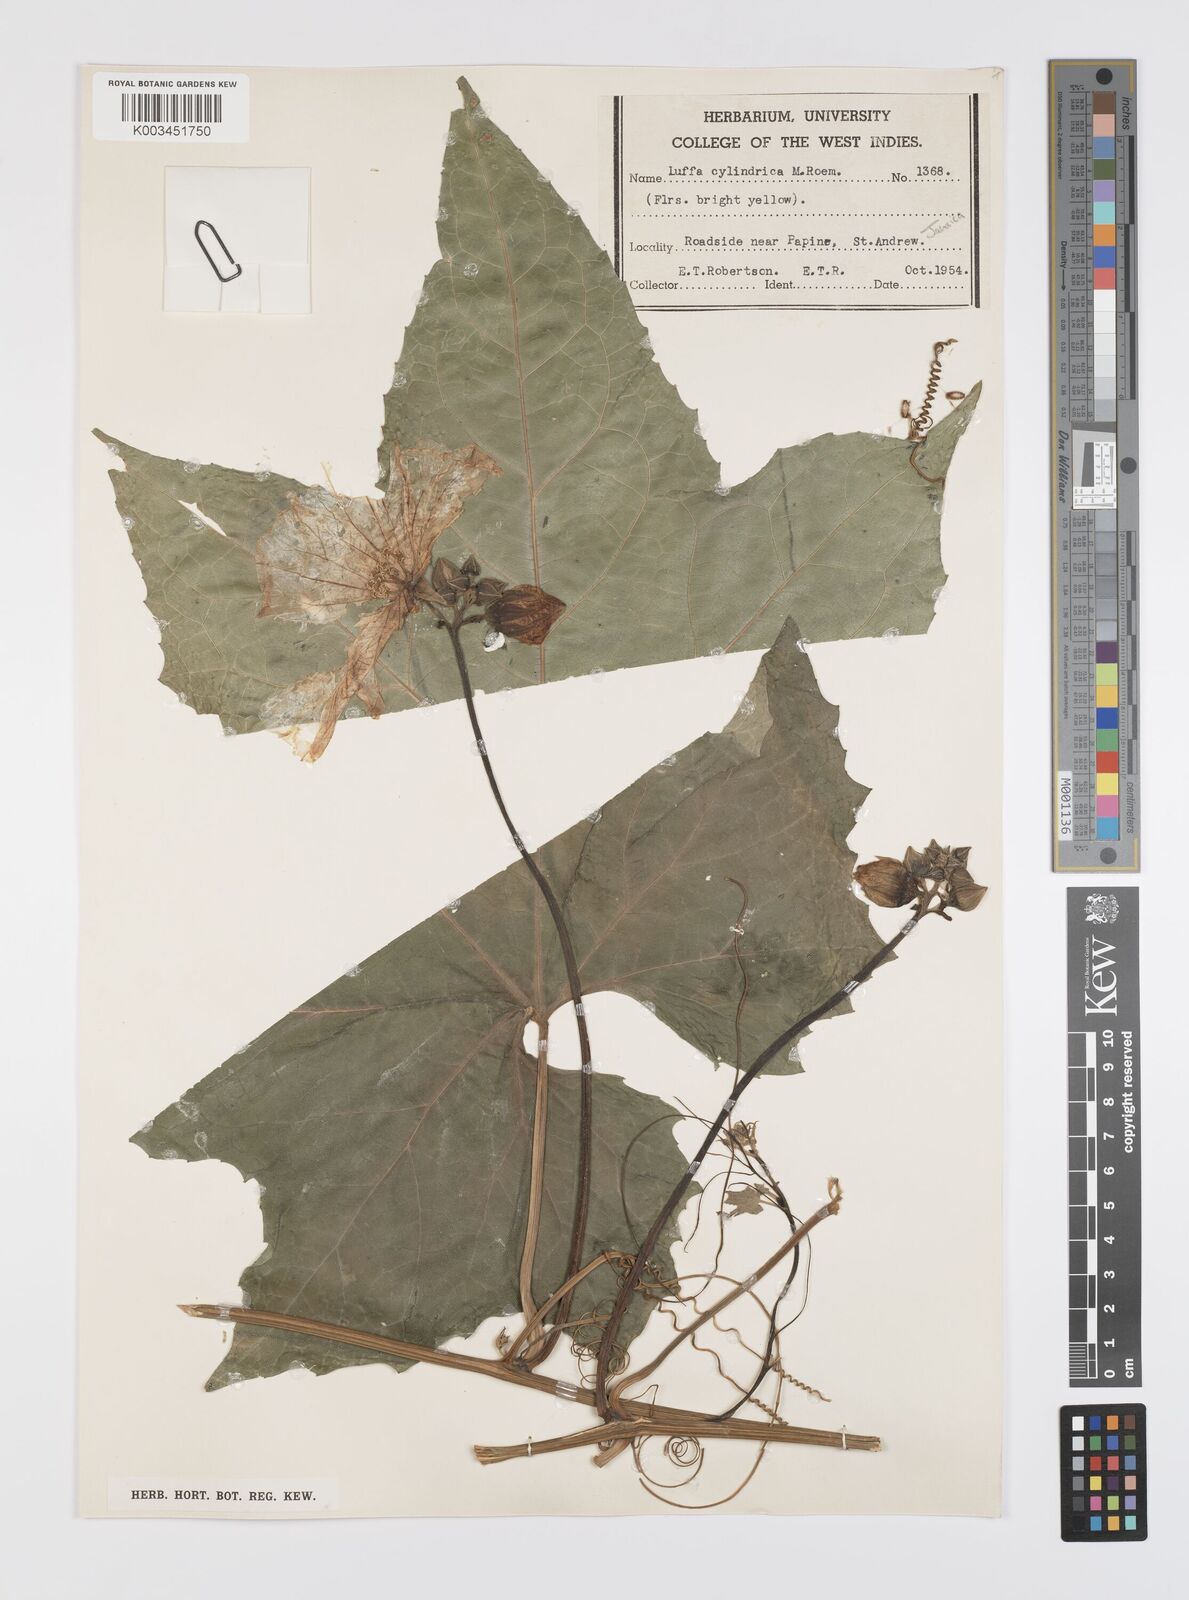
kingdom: Plantae
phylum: Tracheophyta
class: Magnoliopsida
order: Cucurbitales
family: Cucurbitaceae
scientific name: Cucurbitaceae
